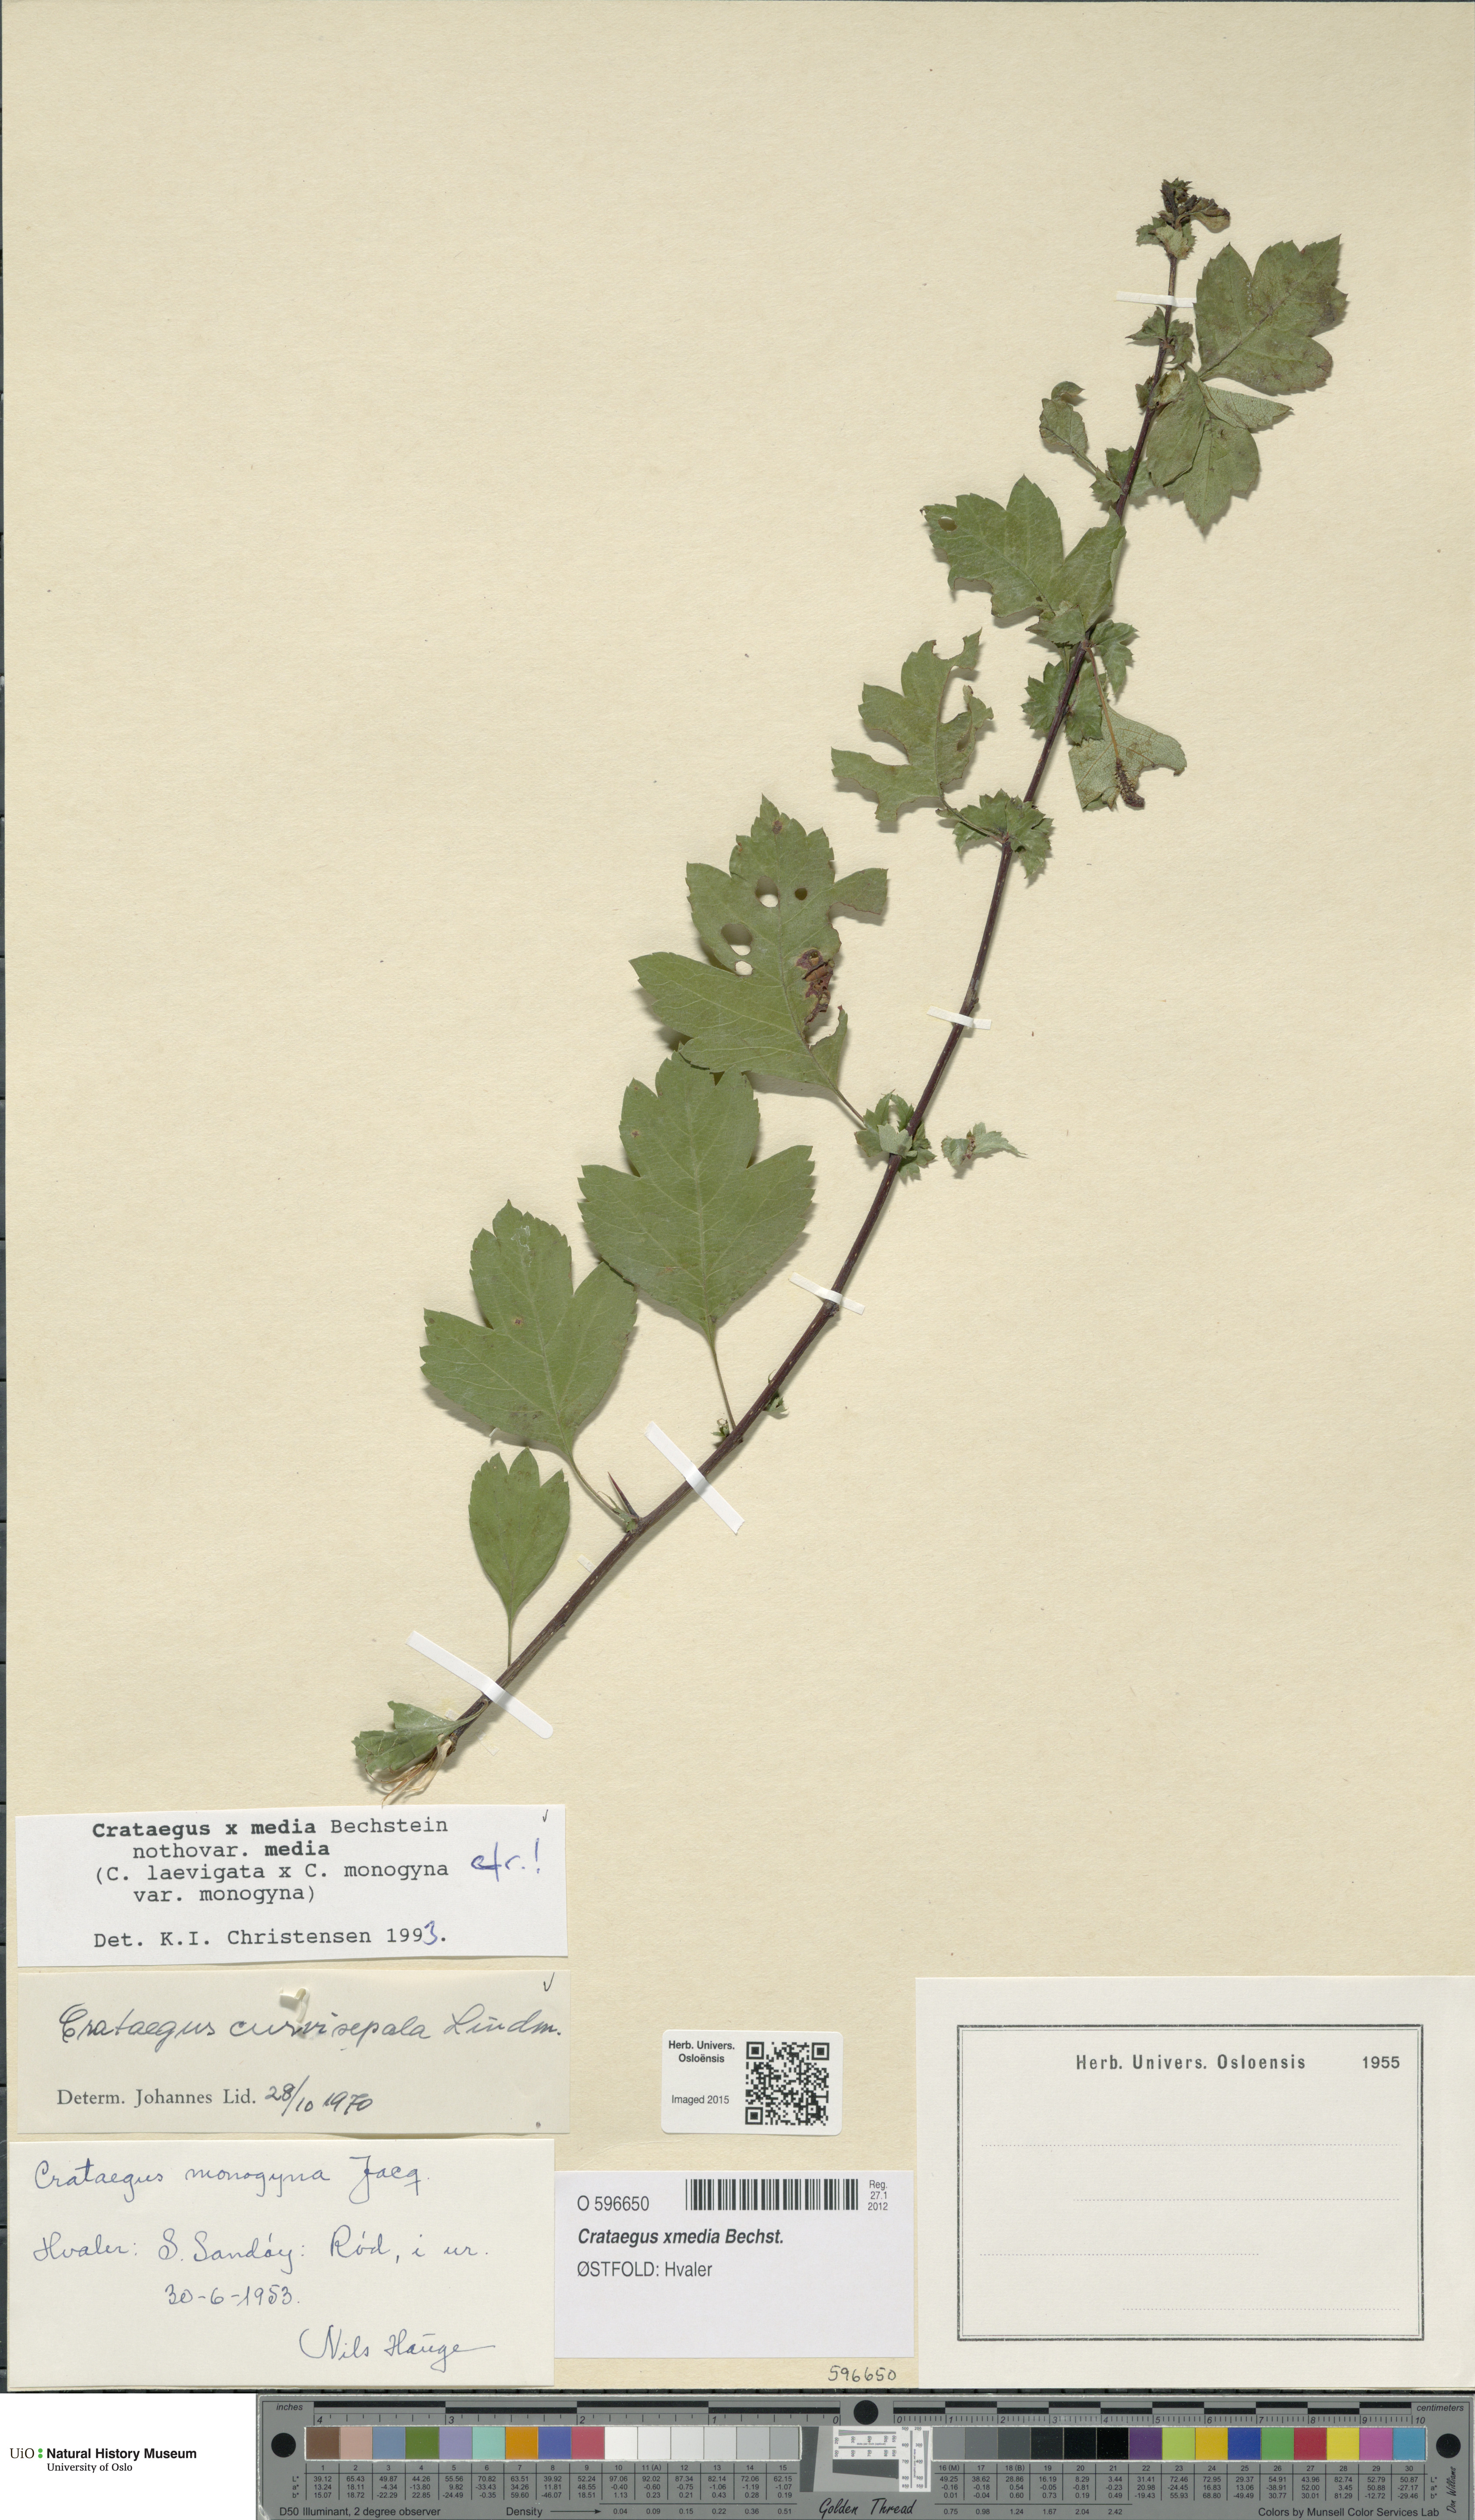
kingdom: Plantae
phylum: Tracheophyta
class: Magnoliopsida
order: Rosales
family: Rosaceae
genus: Crataegus
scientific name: Crataegus media
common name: Intermediate hawthorn
